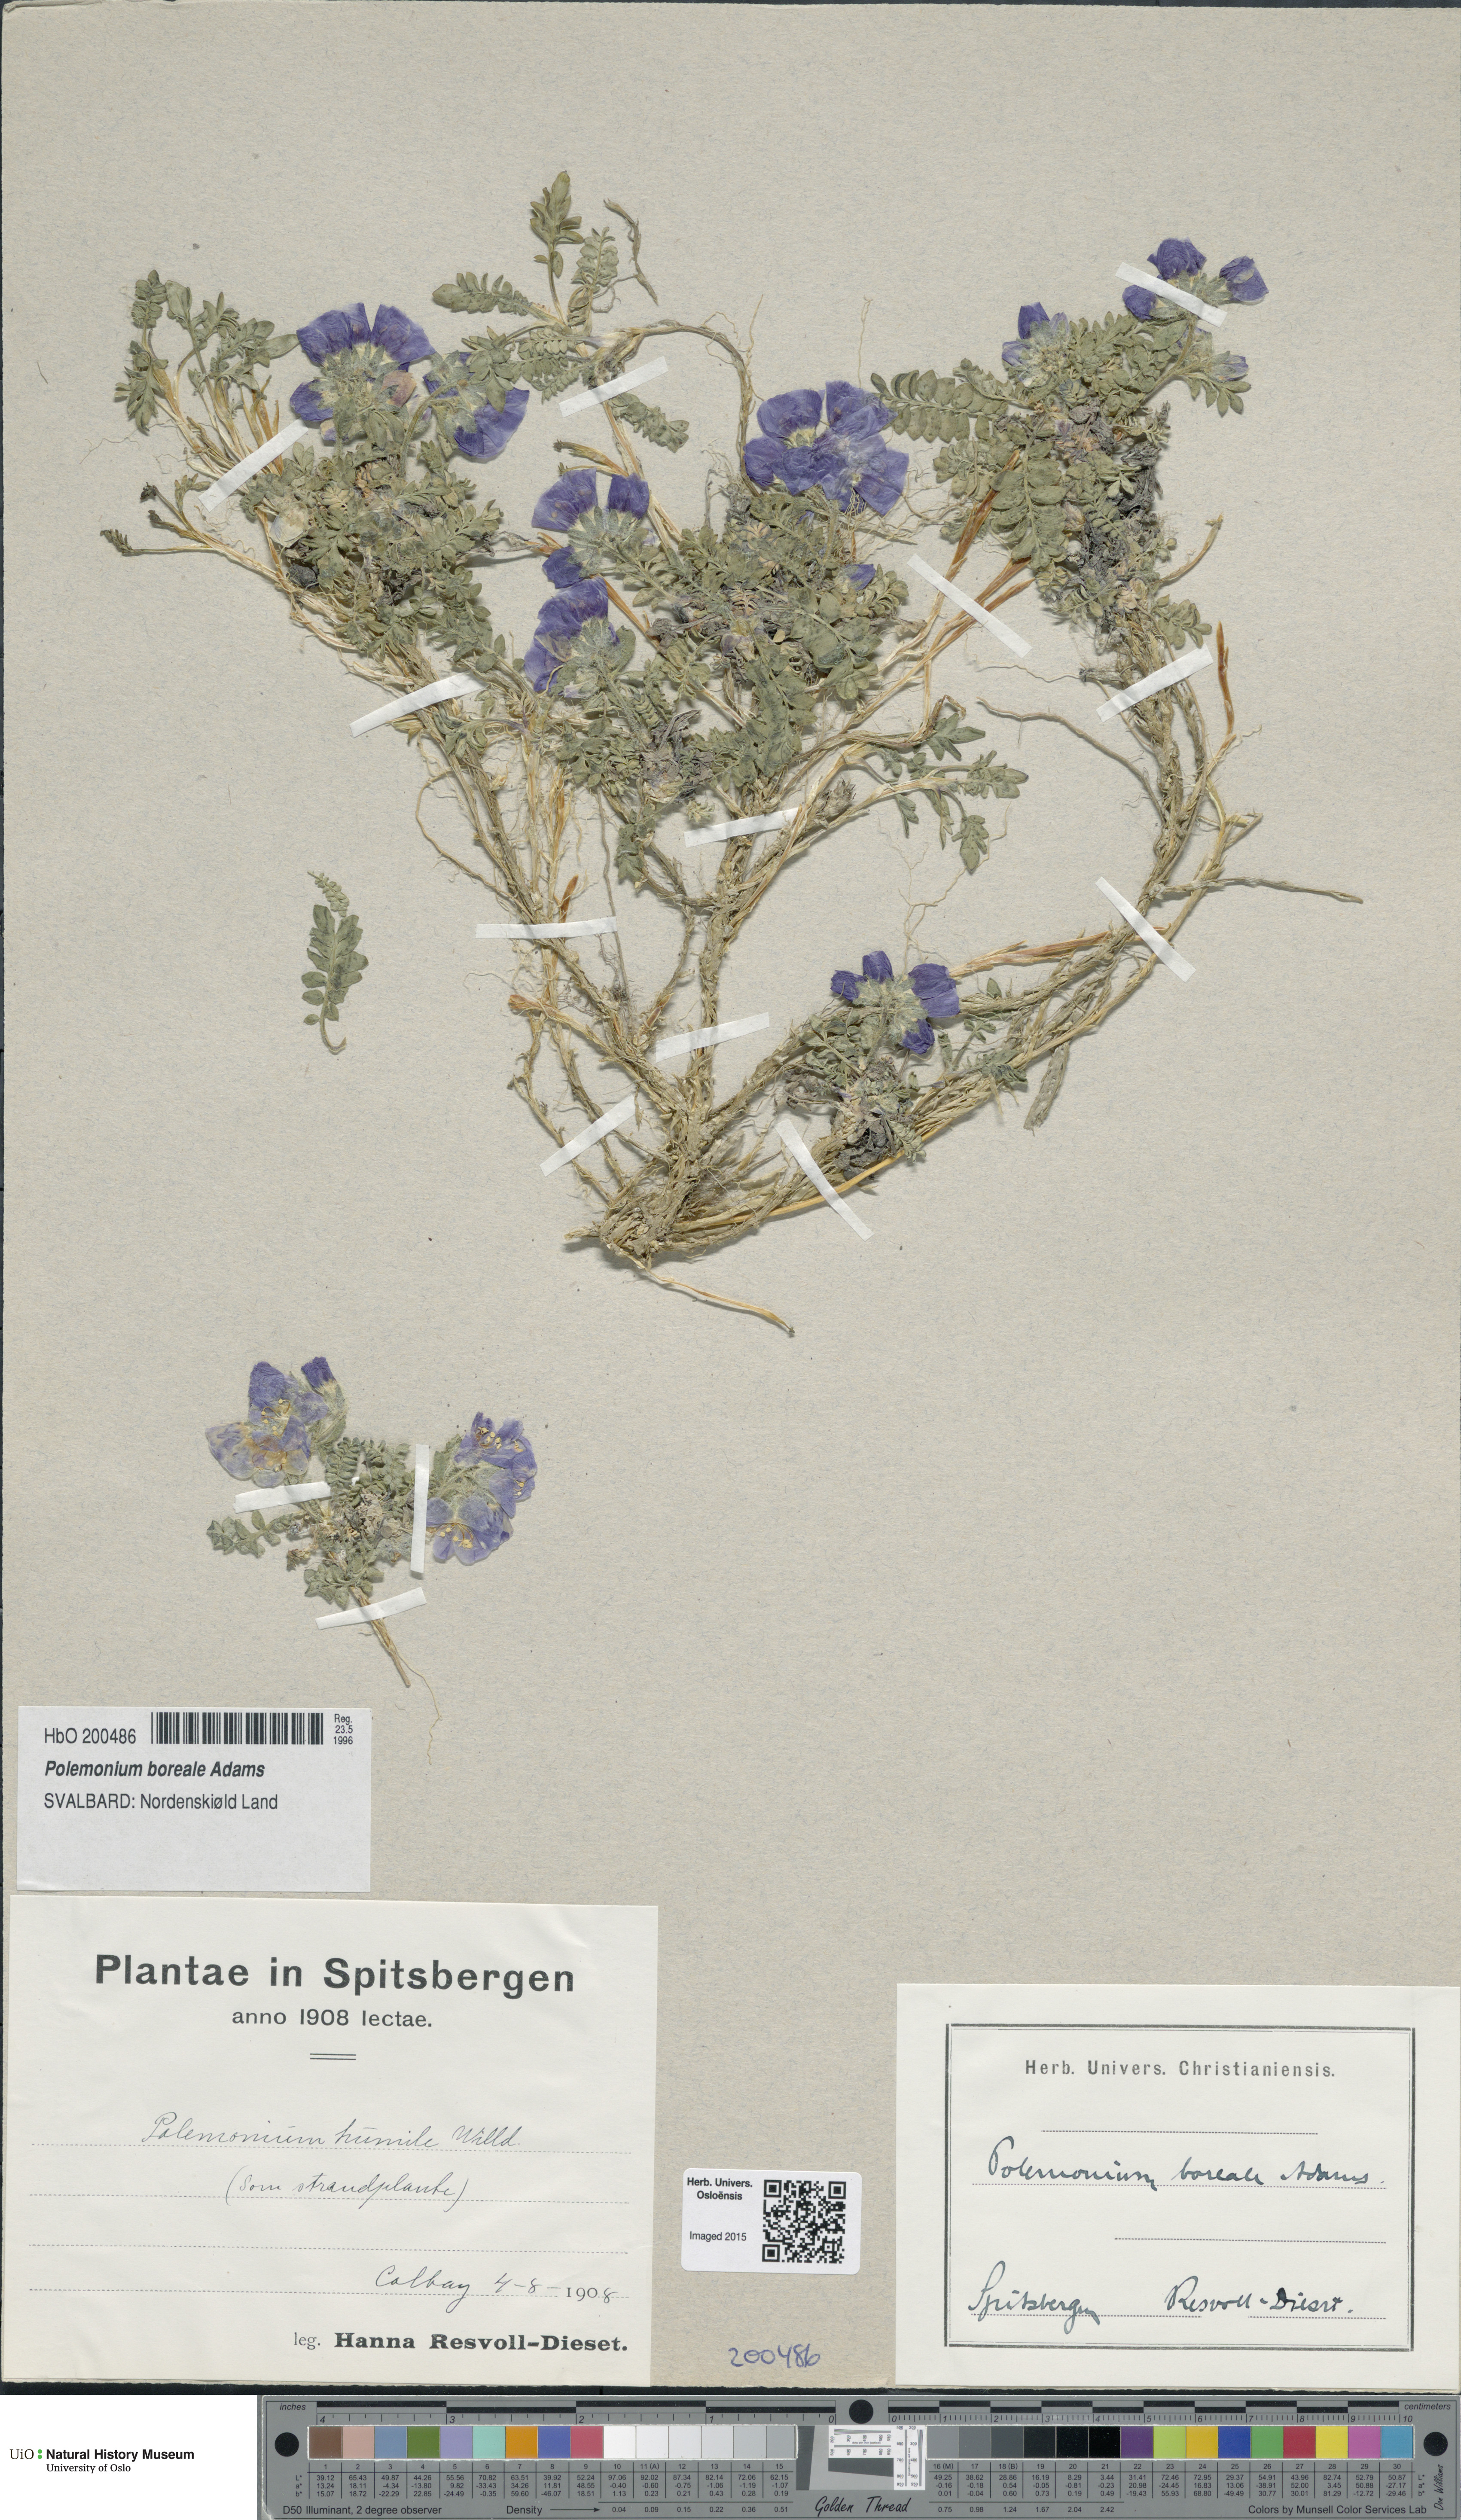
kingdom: Plantae
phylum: Tracheophyta
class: Magnoliopsida
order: Ericales
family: Polemoniaceae
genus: Polemonium
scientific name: Polemonium boreale
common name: Boreal jacob's-ladder
